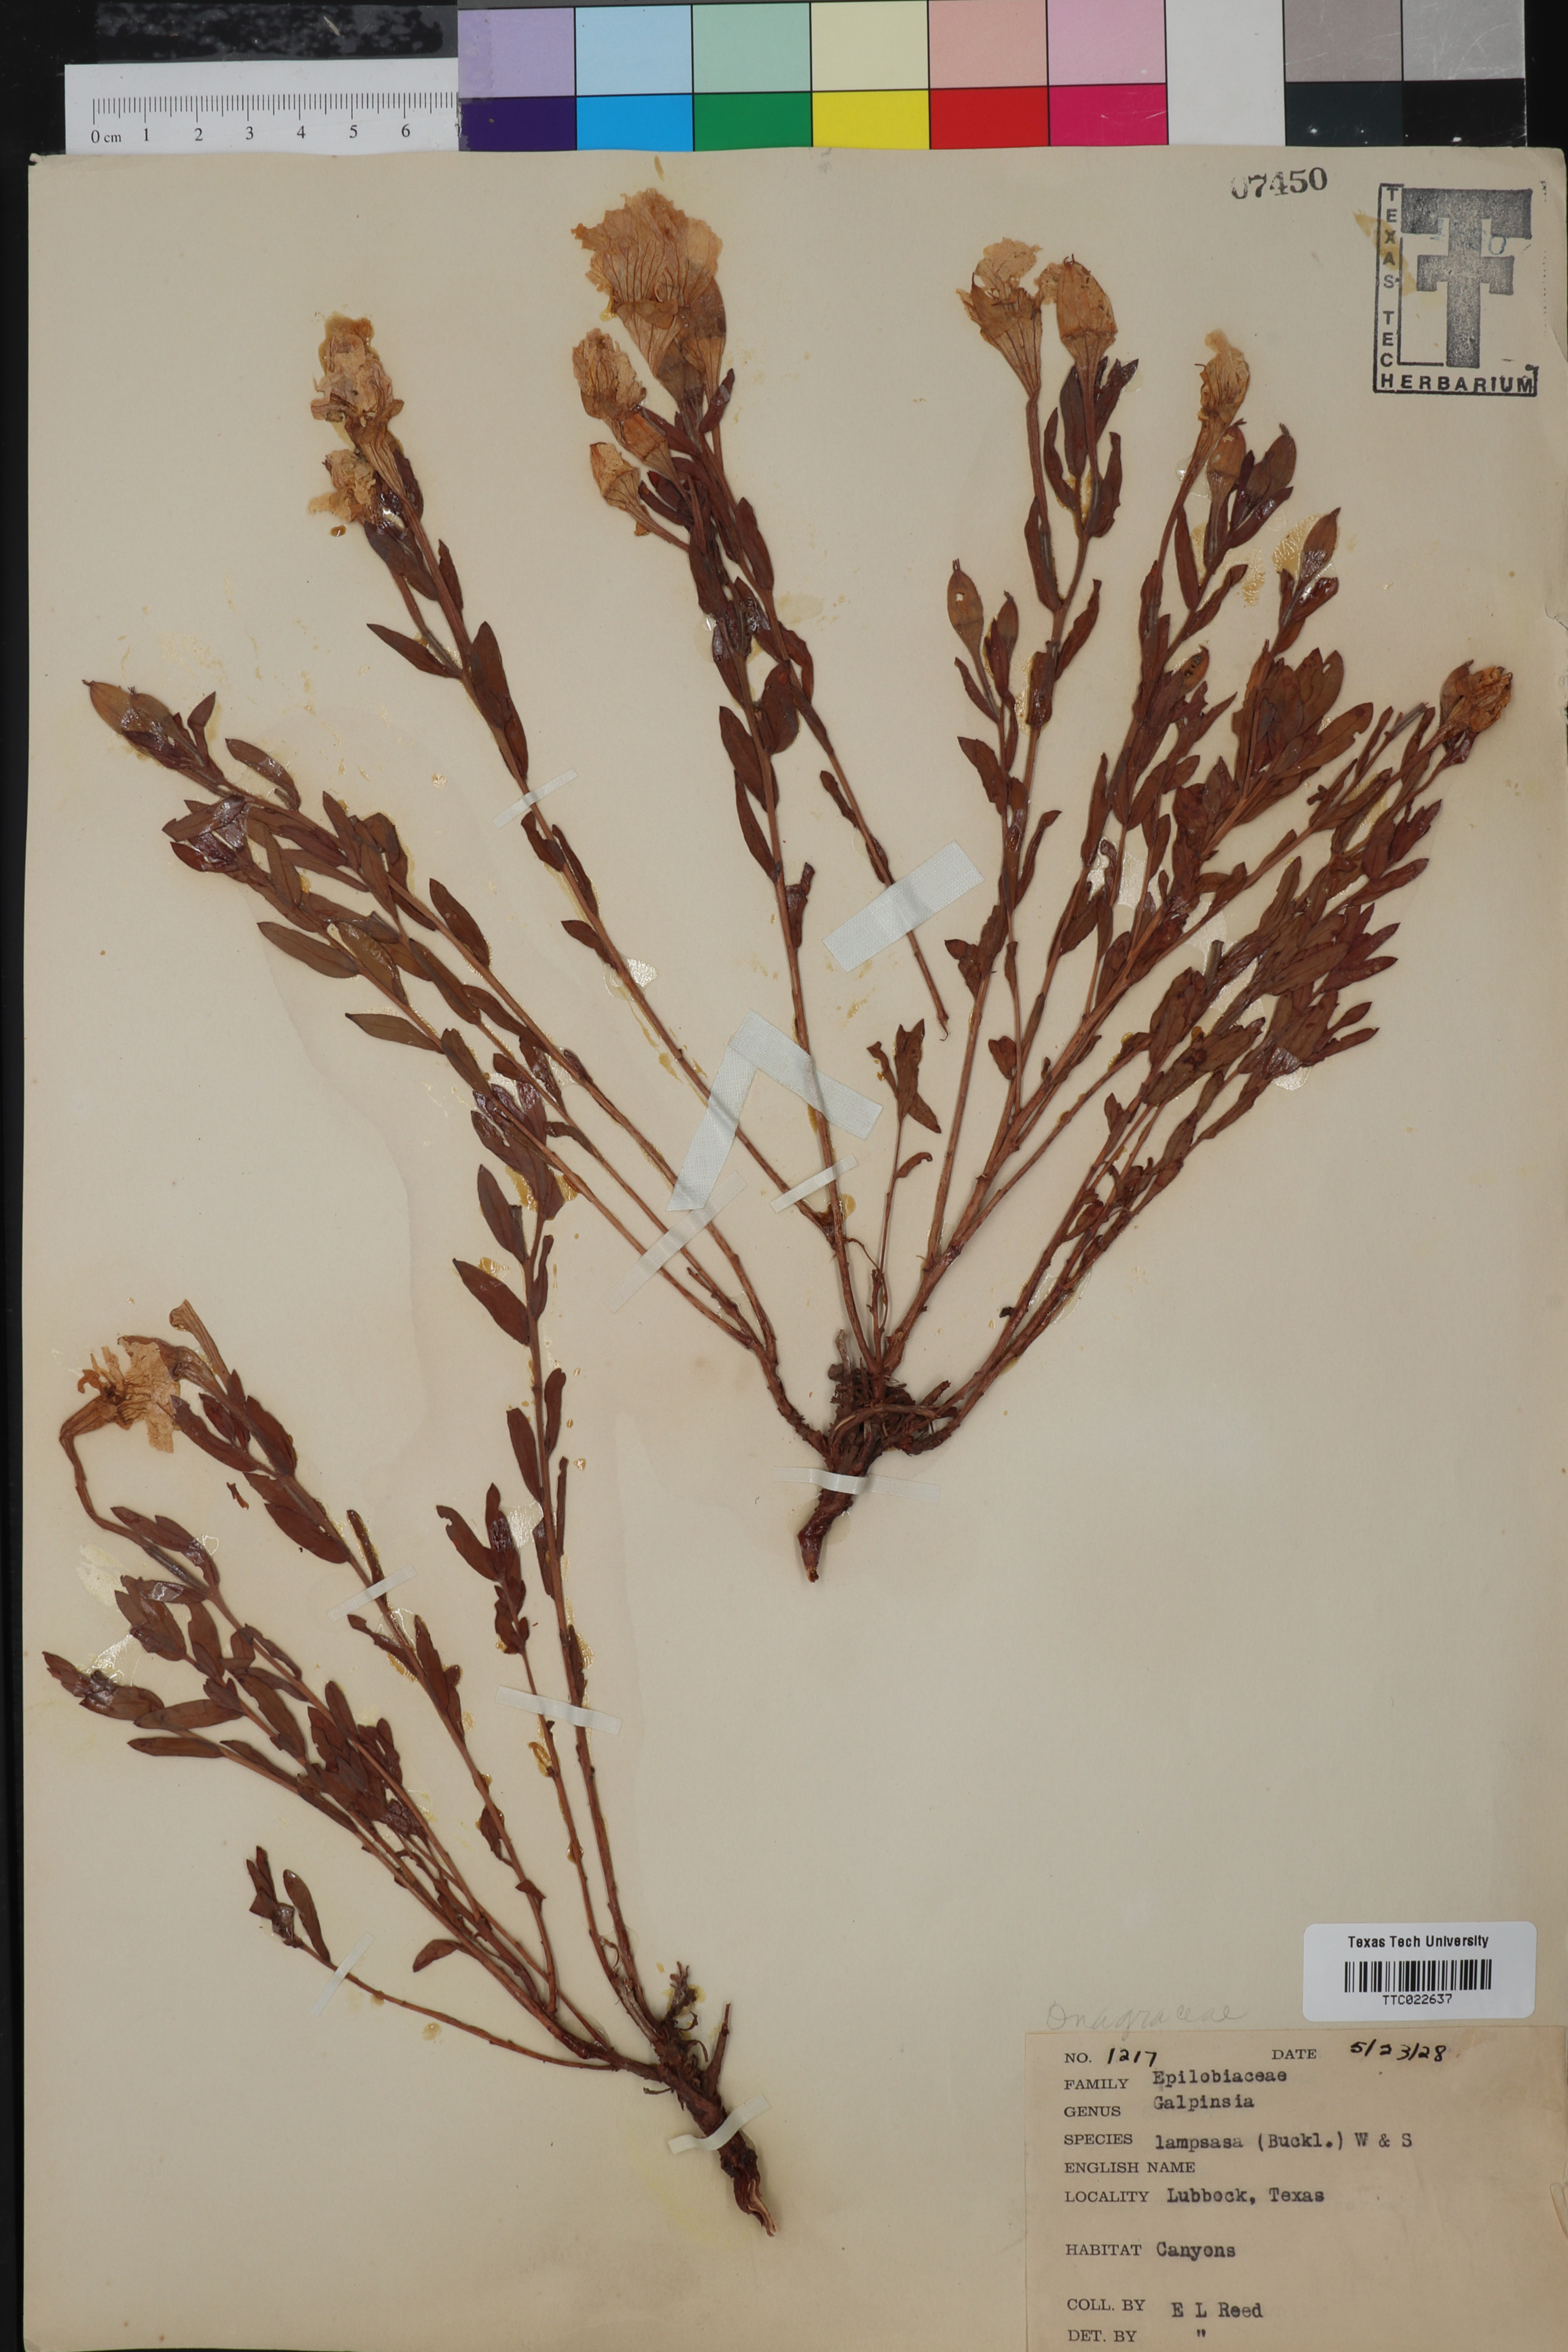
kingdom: Plantae
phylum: Tracheophyta
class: Magnoliopsida
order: Myrtales
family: Onagraceae
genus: Oenothera
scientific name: Oenothera Galpinsia lampsana
